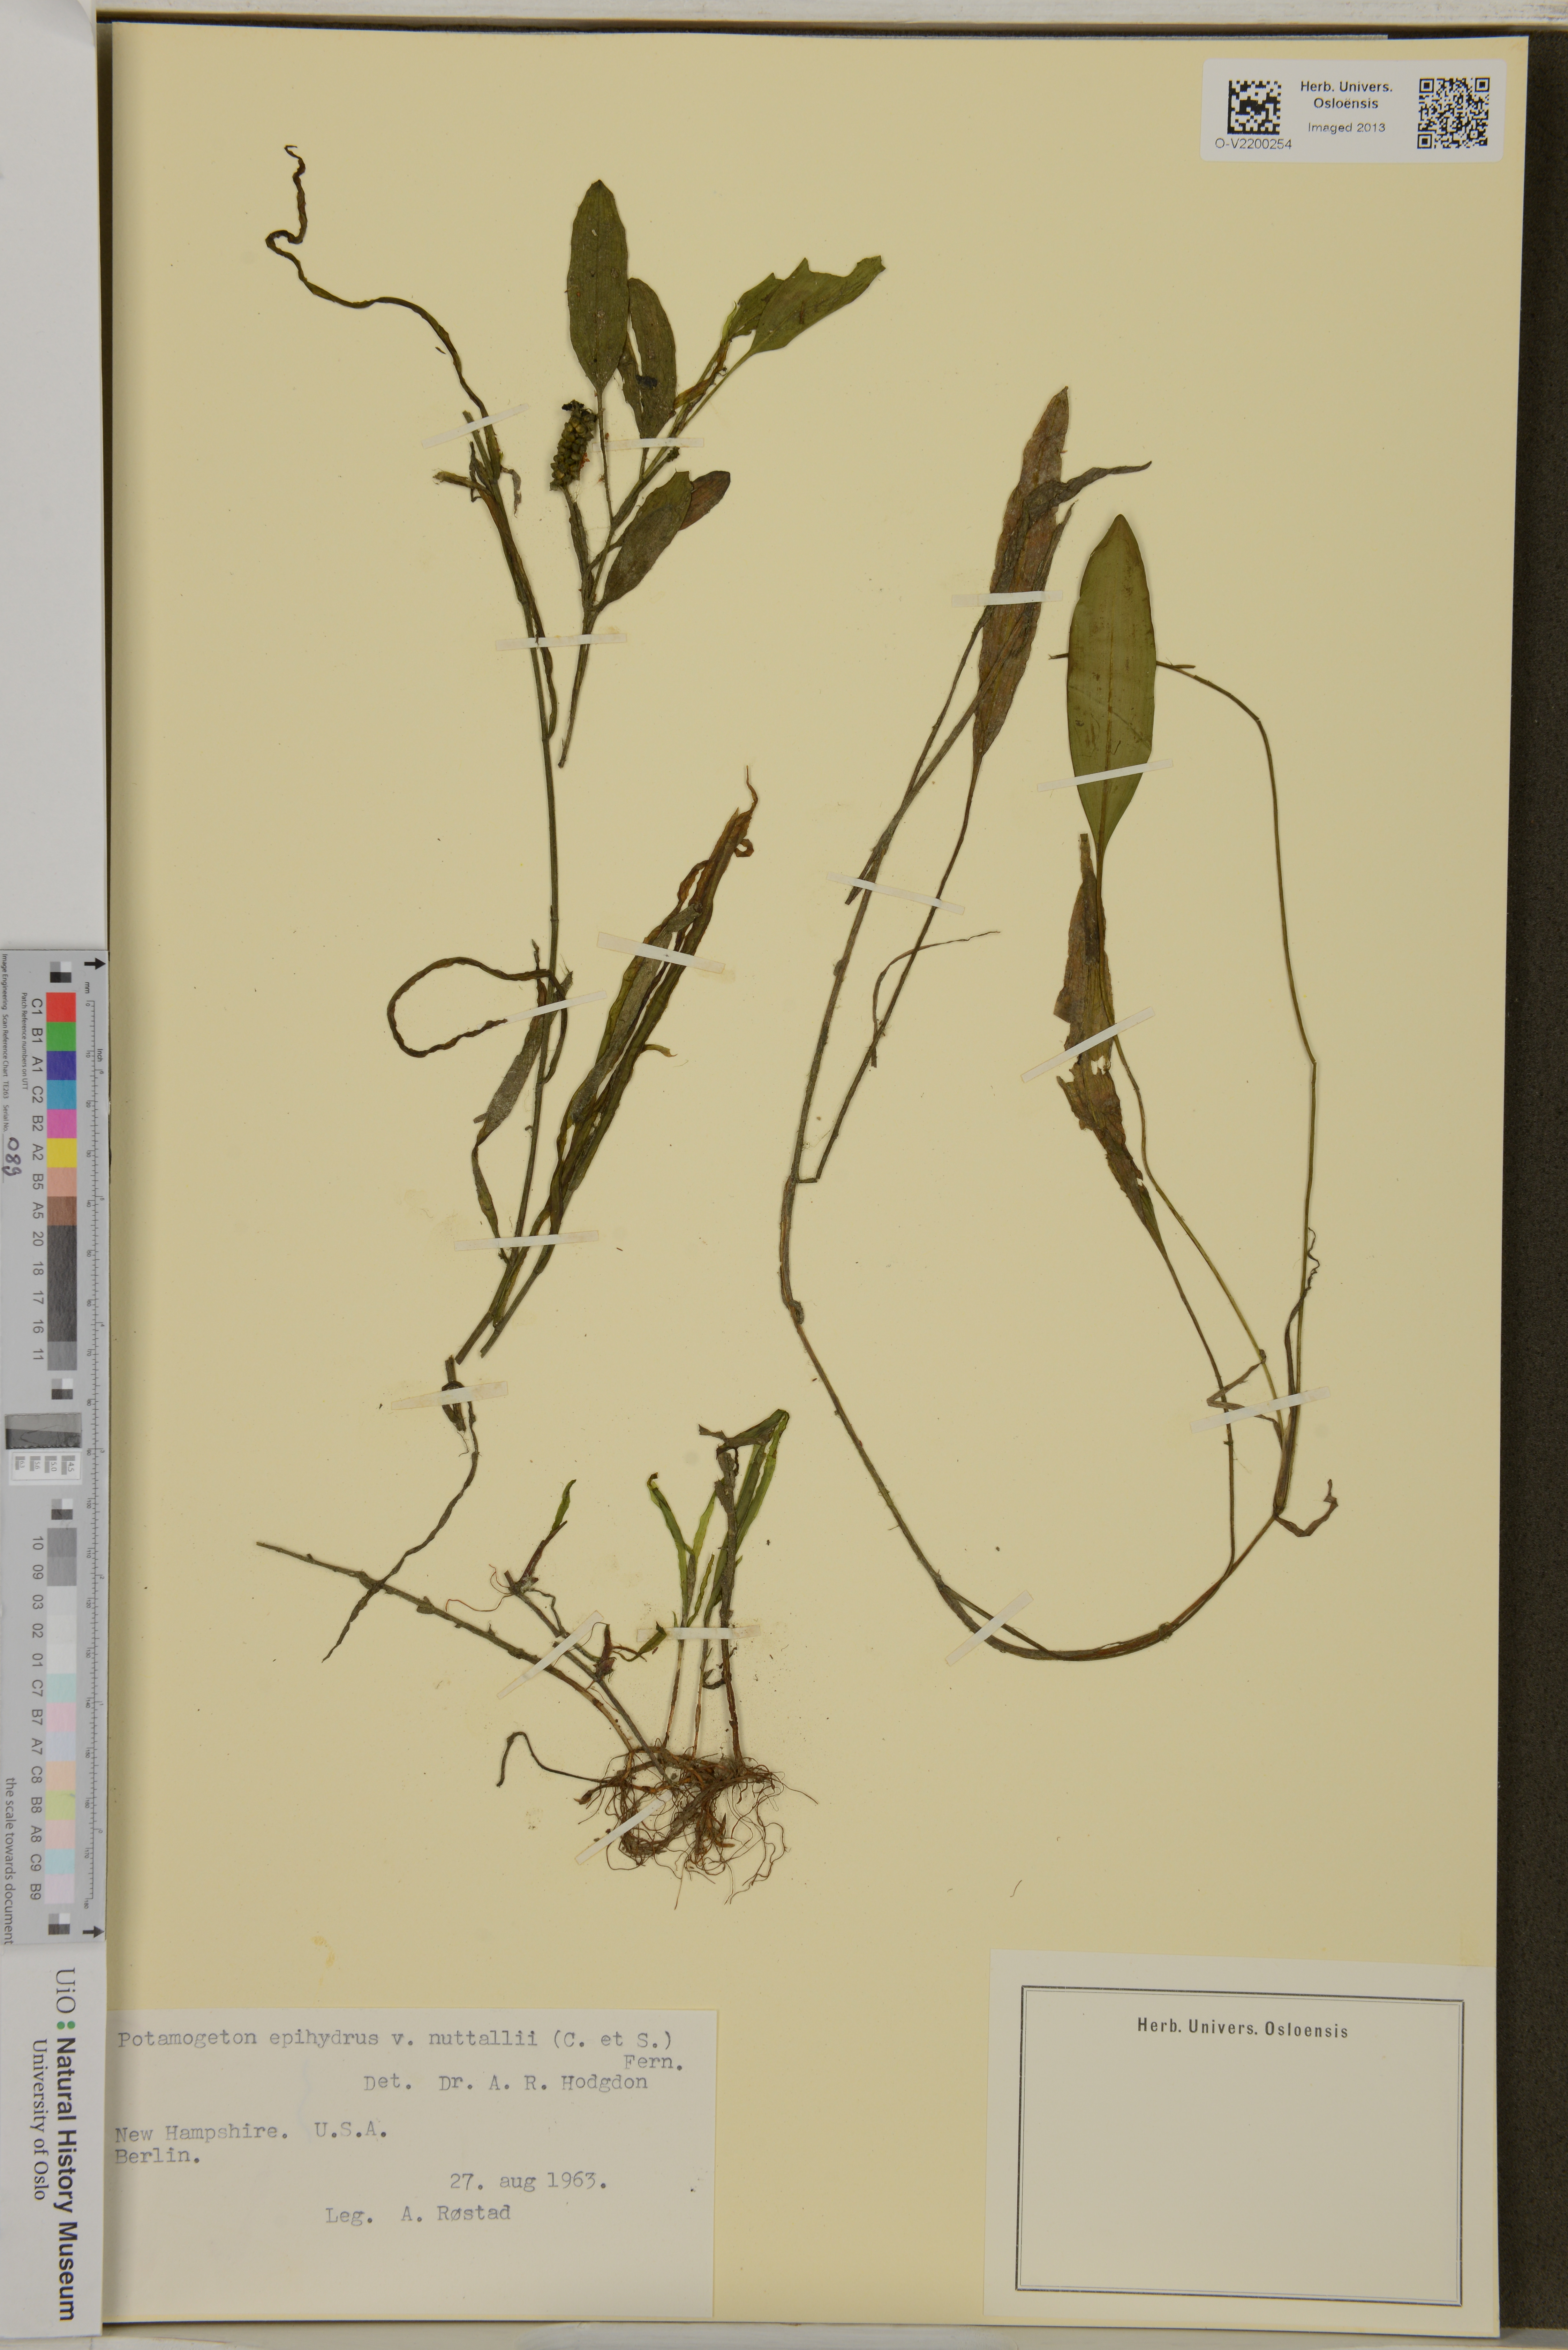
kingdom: Plantae
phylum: Tracheophyta
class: Liliopsida
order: Alismatales
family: Potamogetonaceae
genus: Potamogeton
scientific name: Potamogeton epihydrus
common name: American pondweed
